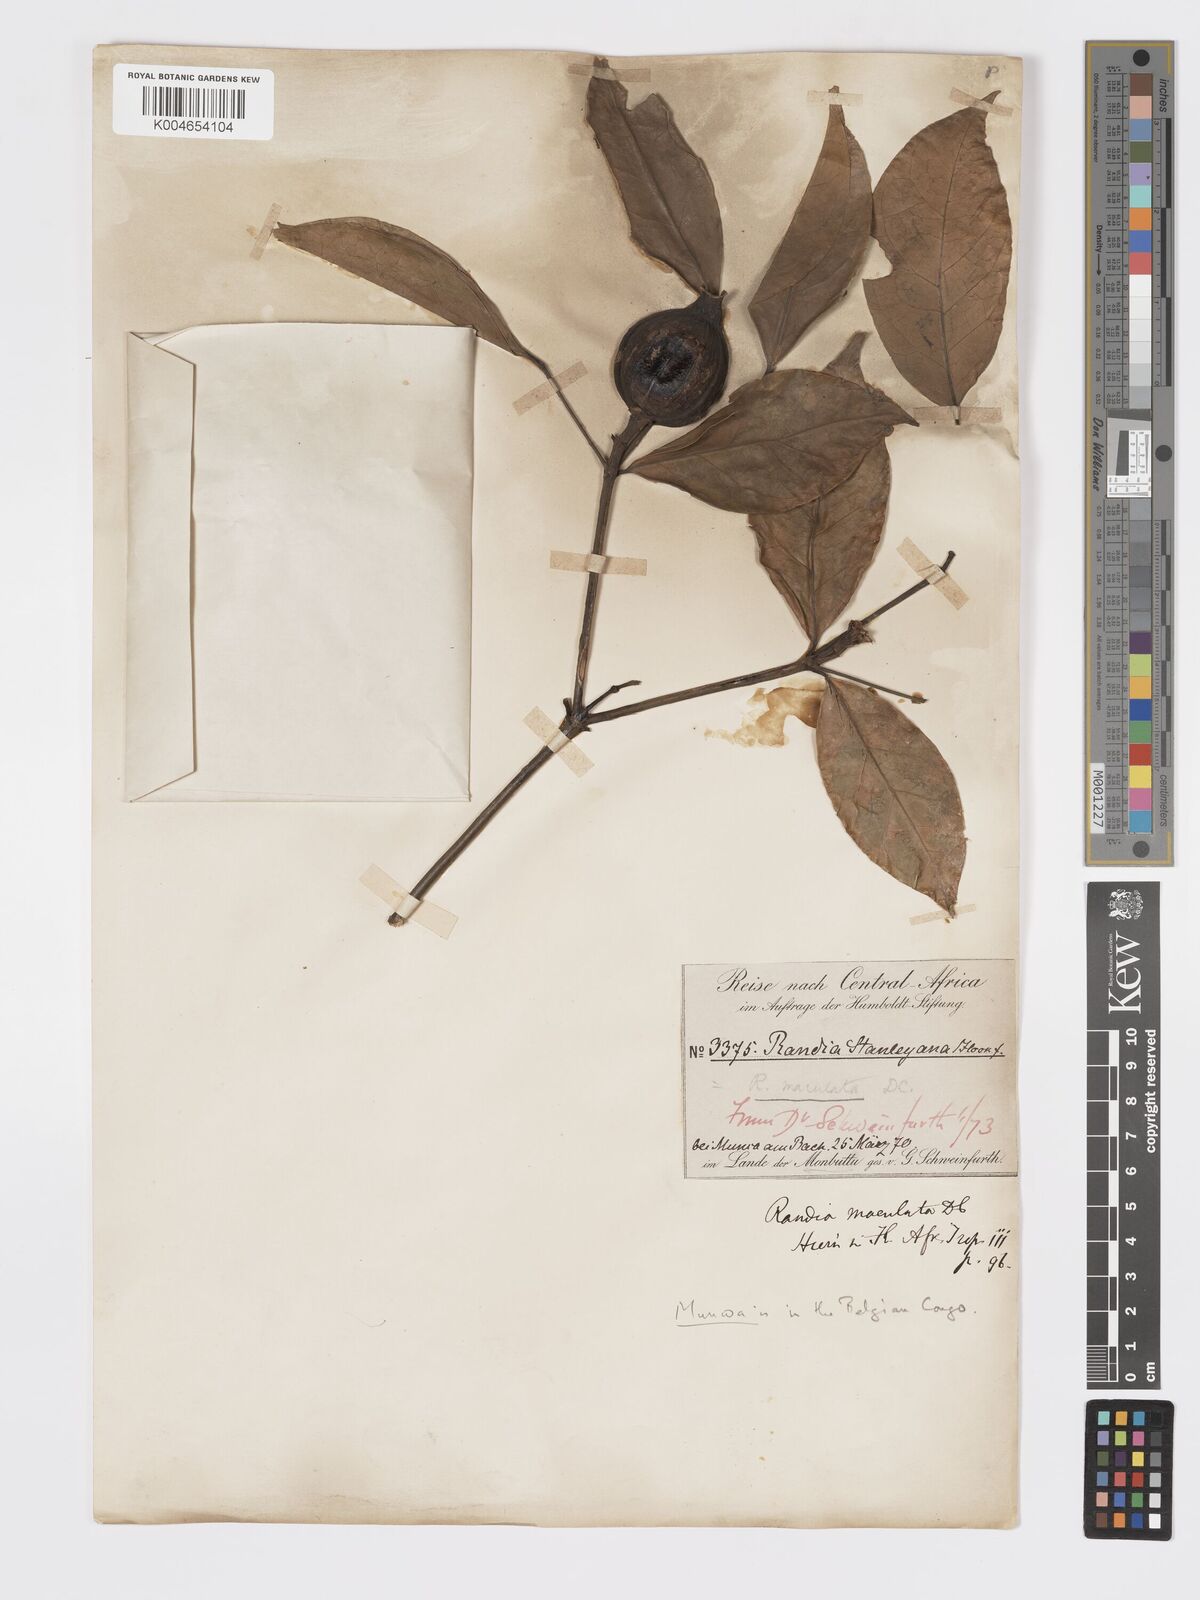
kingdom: Plantae
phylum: Tracheophyta
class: Magnoliopsida
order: Gentianales
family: Rubiaceae
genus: Rothmannia
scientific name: Rothmannia longiflora
